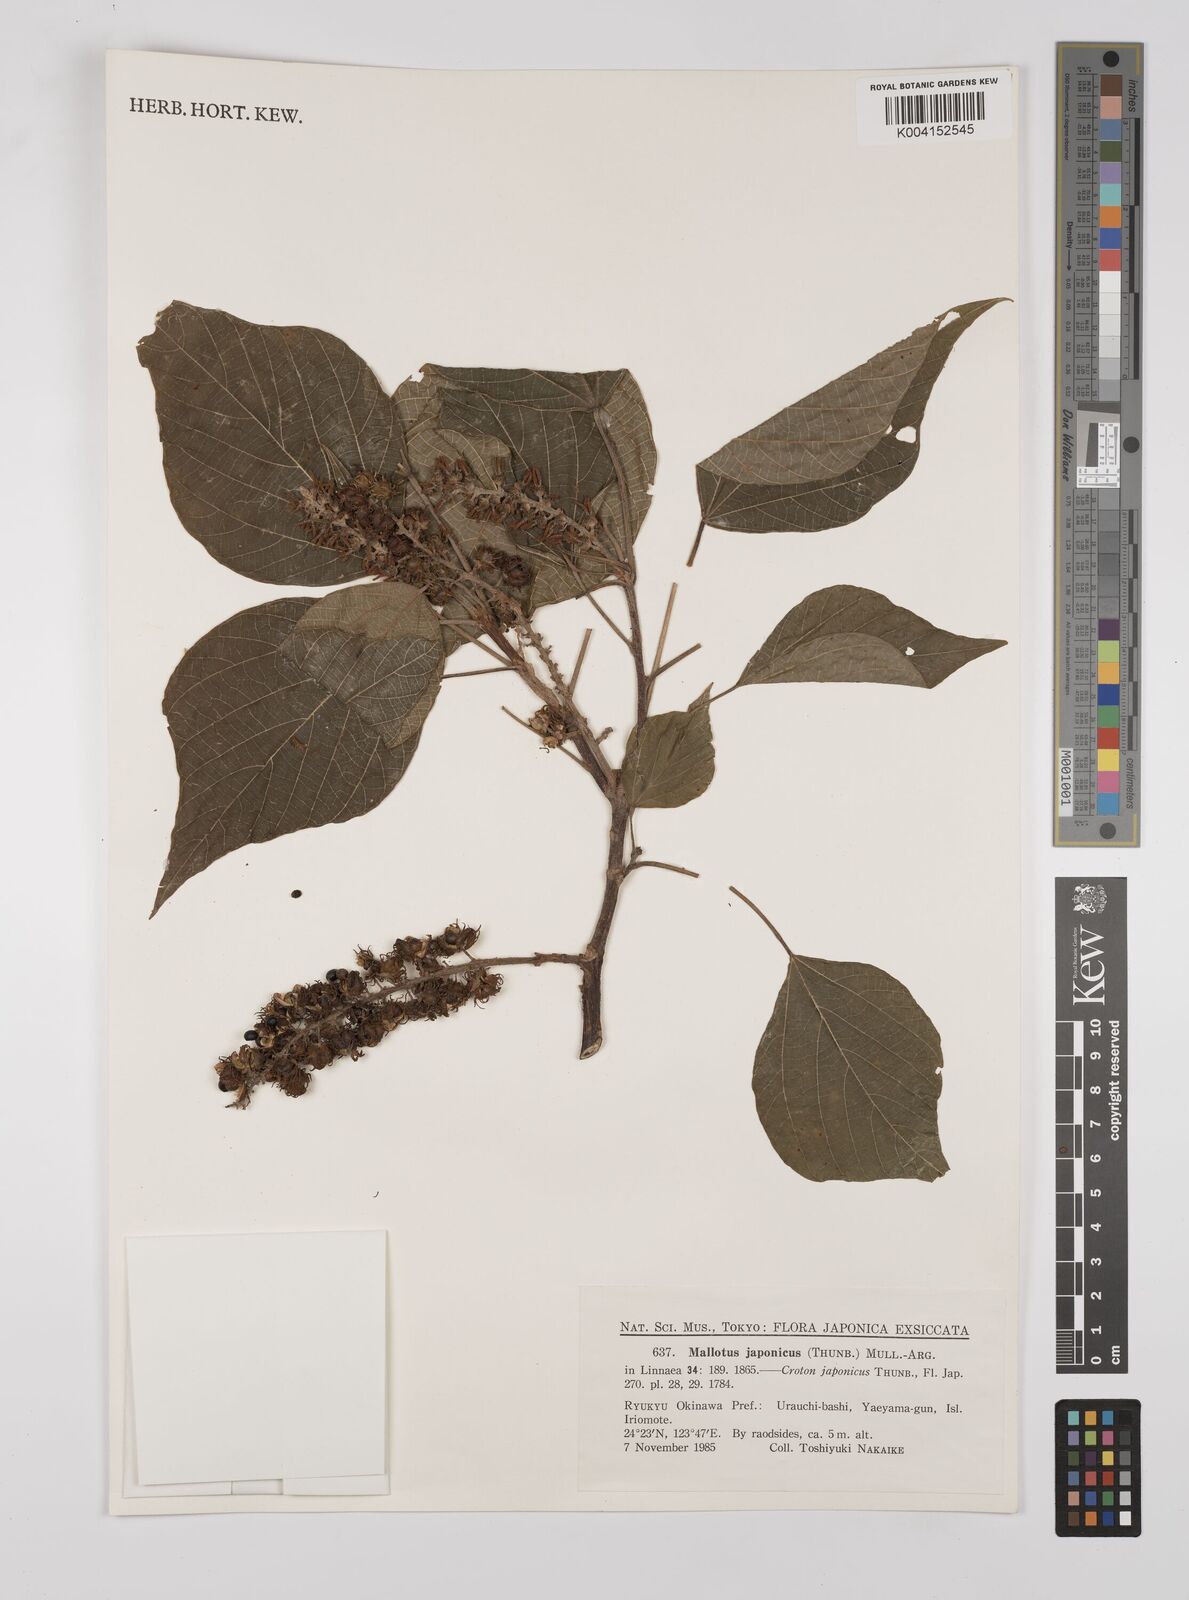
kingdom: Plantae
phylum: Tracheophyta
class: Magnoliopsida
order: Malpighiales
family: Euphorbiaceae
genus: Mallotus
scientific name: Mallotus japonicus
